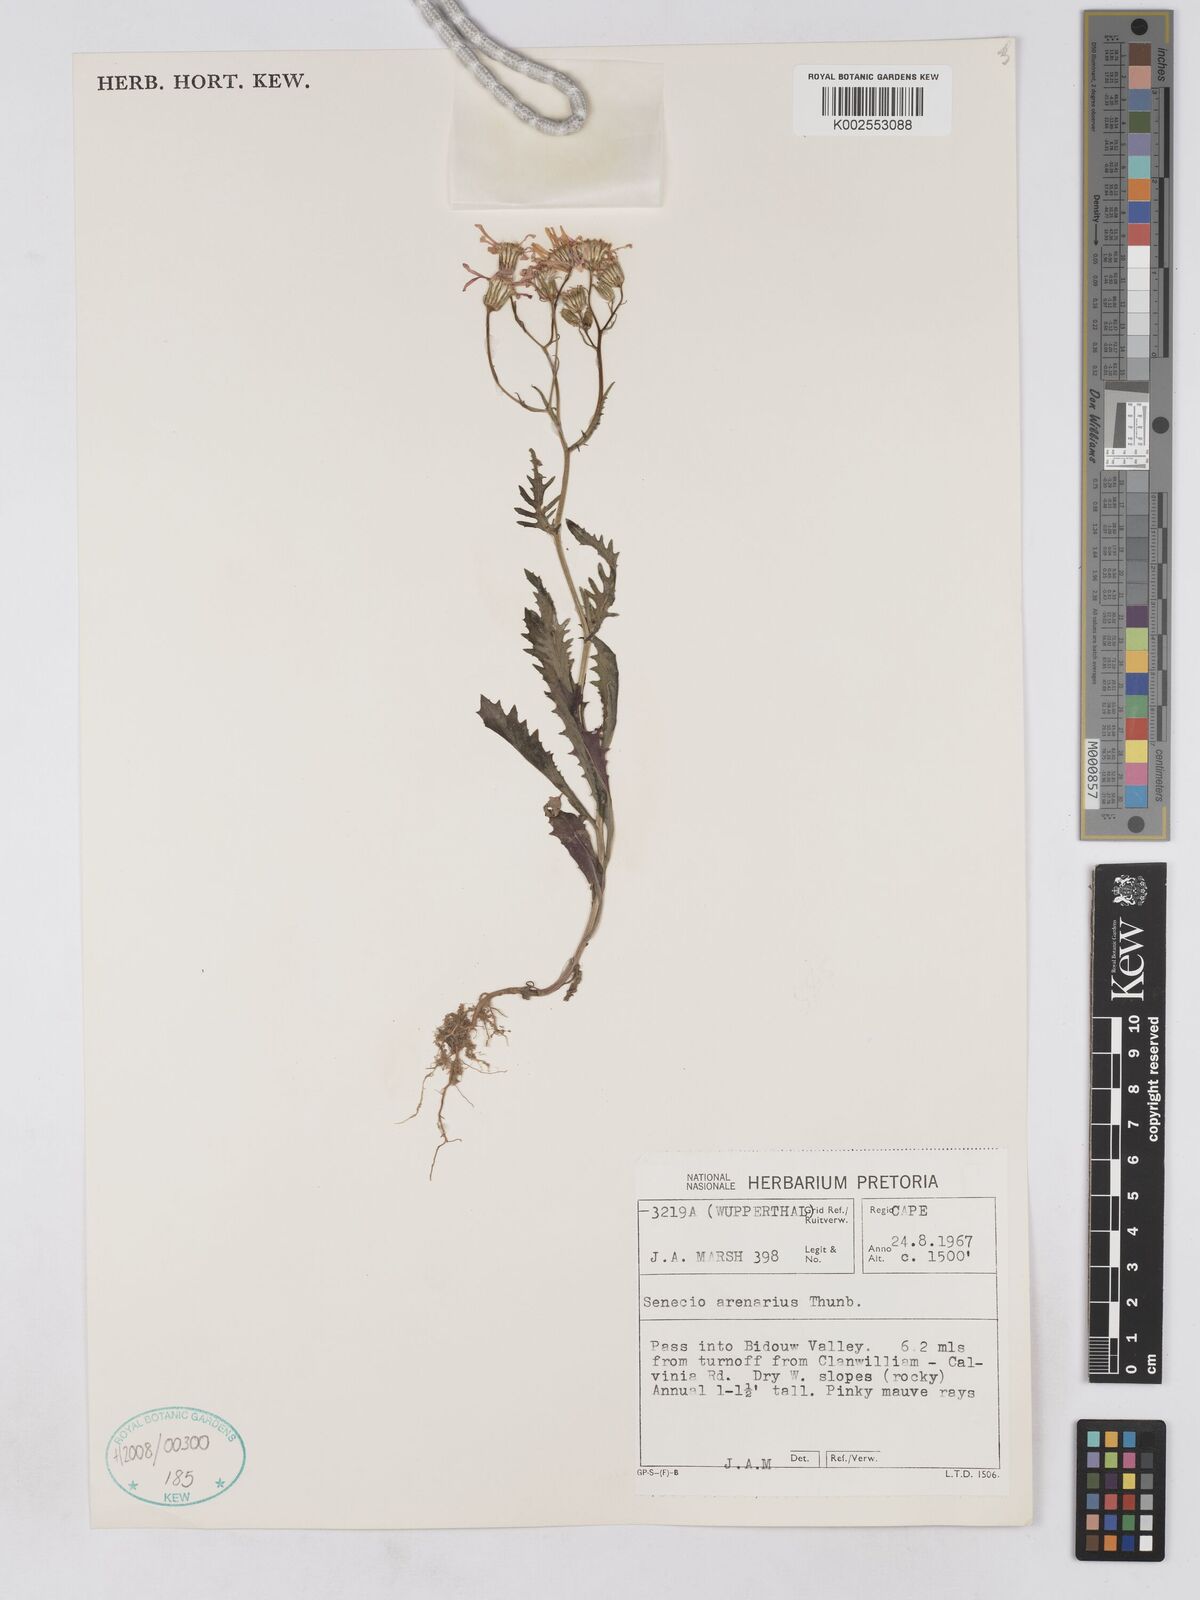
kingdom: Plantae
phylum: Tracheophyta
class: Magnoliopsida
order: Asterales
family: Asteraceae
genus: Senecio
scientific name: Senecio arenarius
